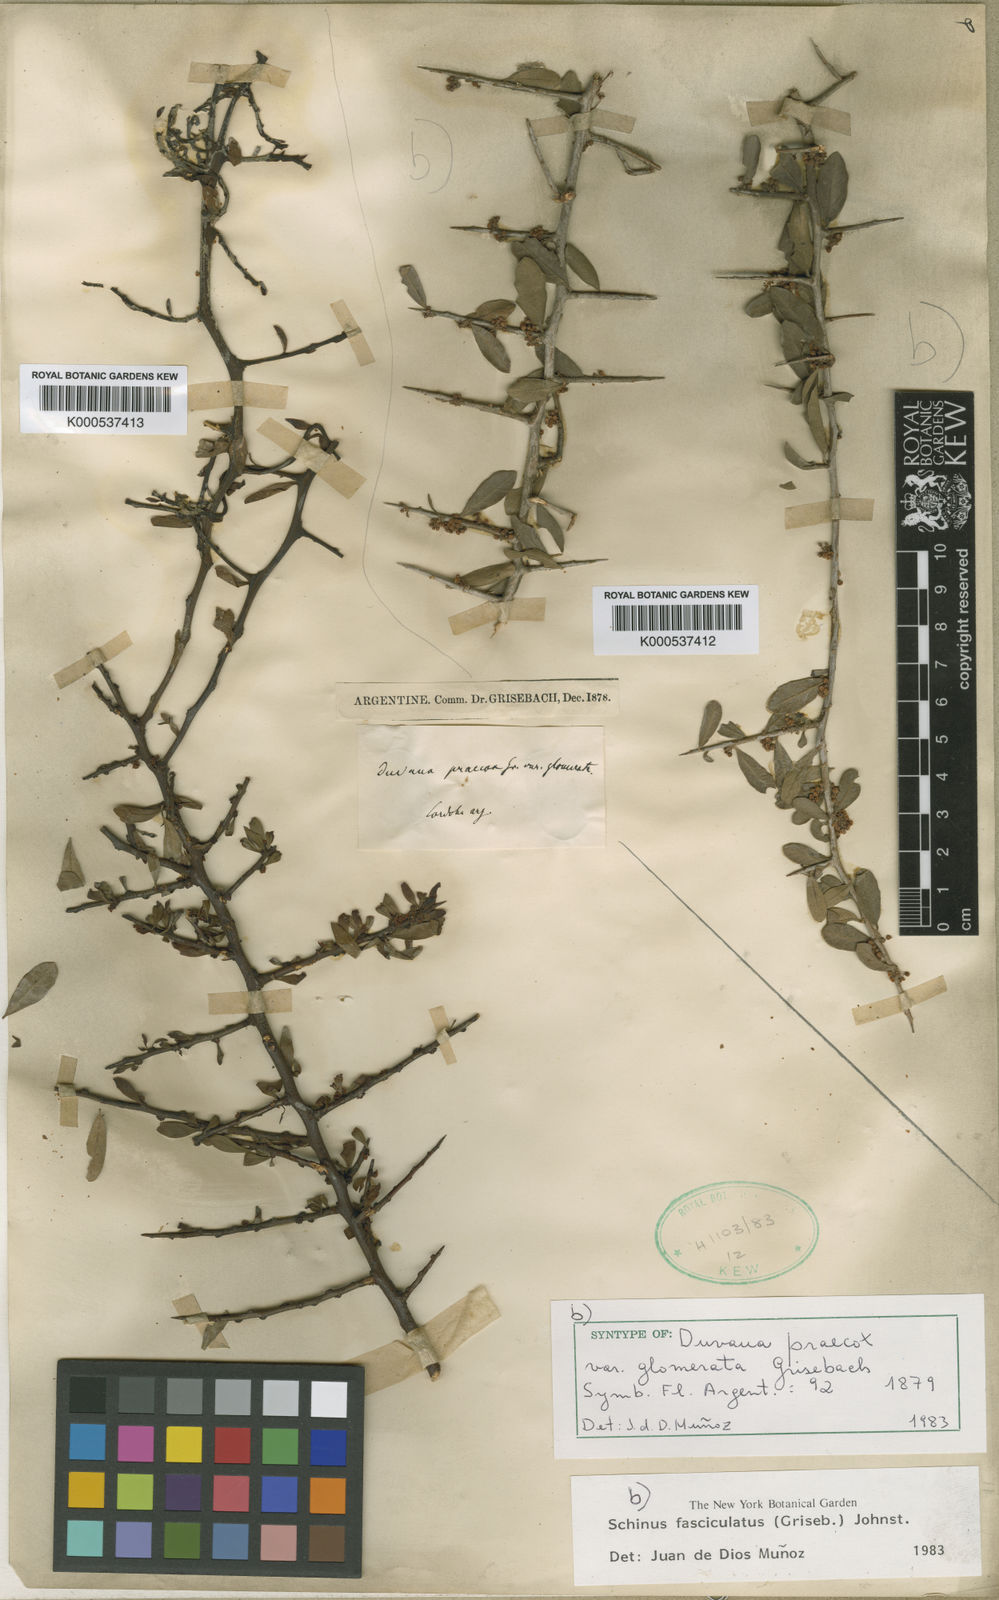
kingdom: Plantae
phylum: Tracheophyta
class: Magnoliopsida
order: Sapindales
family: Anacardiaceae
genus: Schinus
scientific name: Schinus fasciculata
